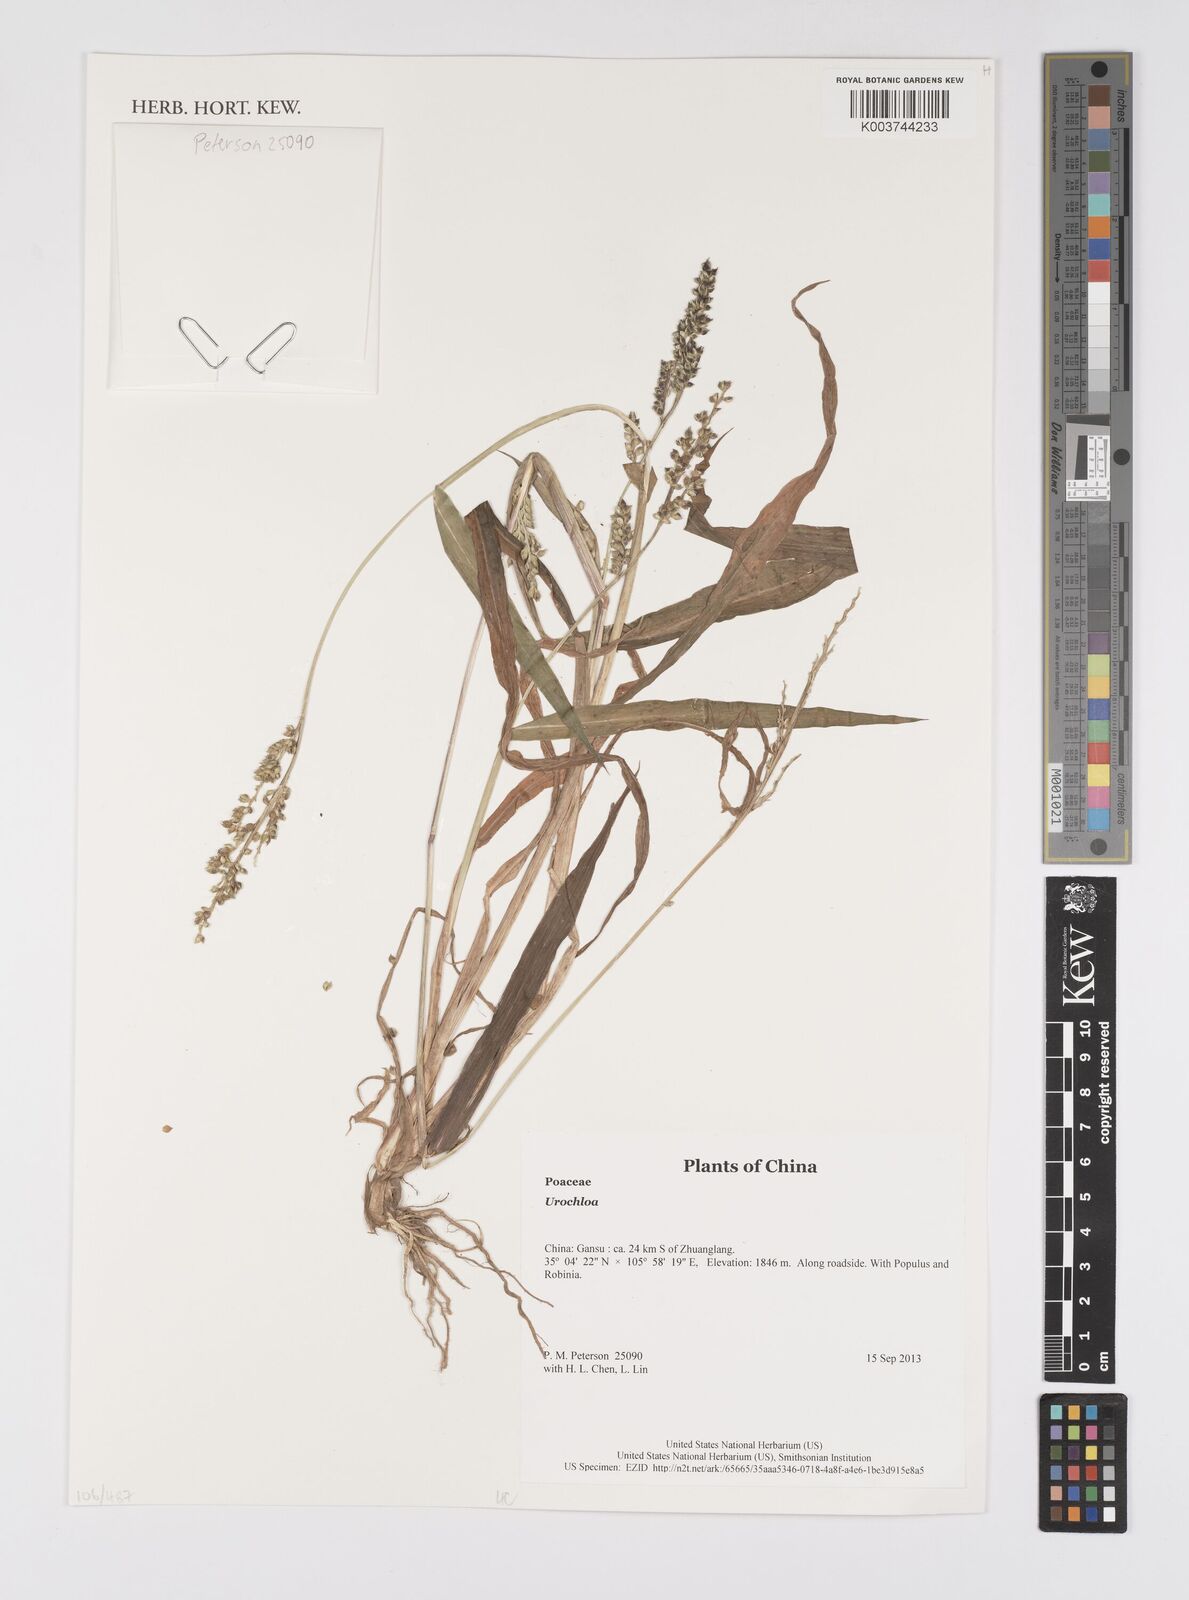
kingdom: Plantae
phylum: Tracheophyta
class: Liliopsida
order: Poales
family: Poaceae
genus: Urochloa
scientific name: Urochloa
